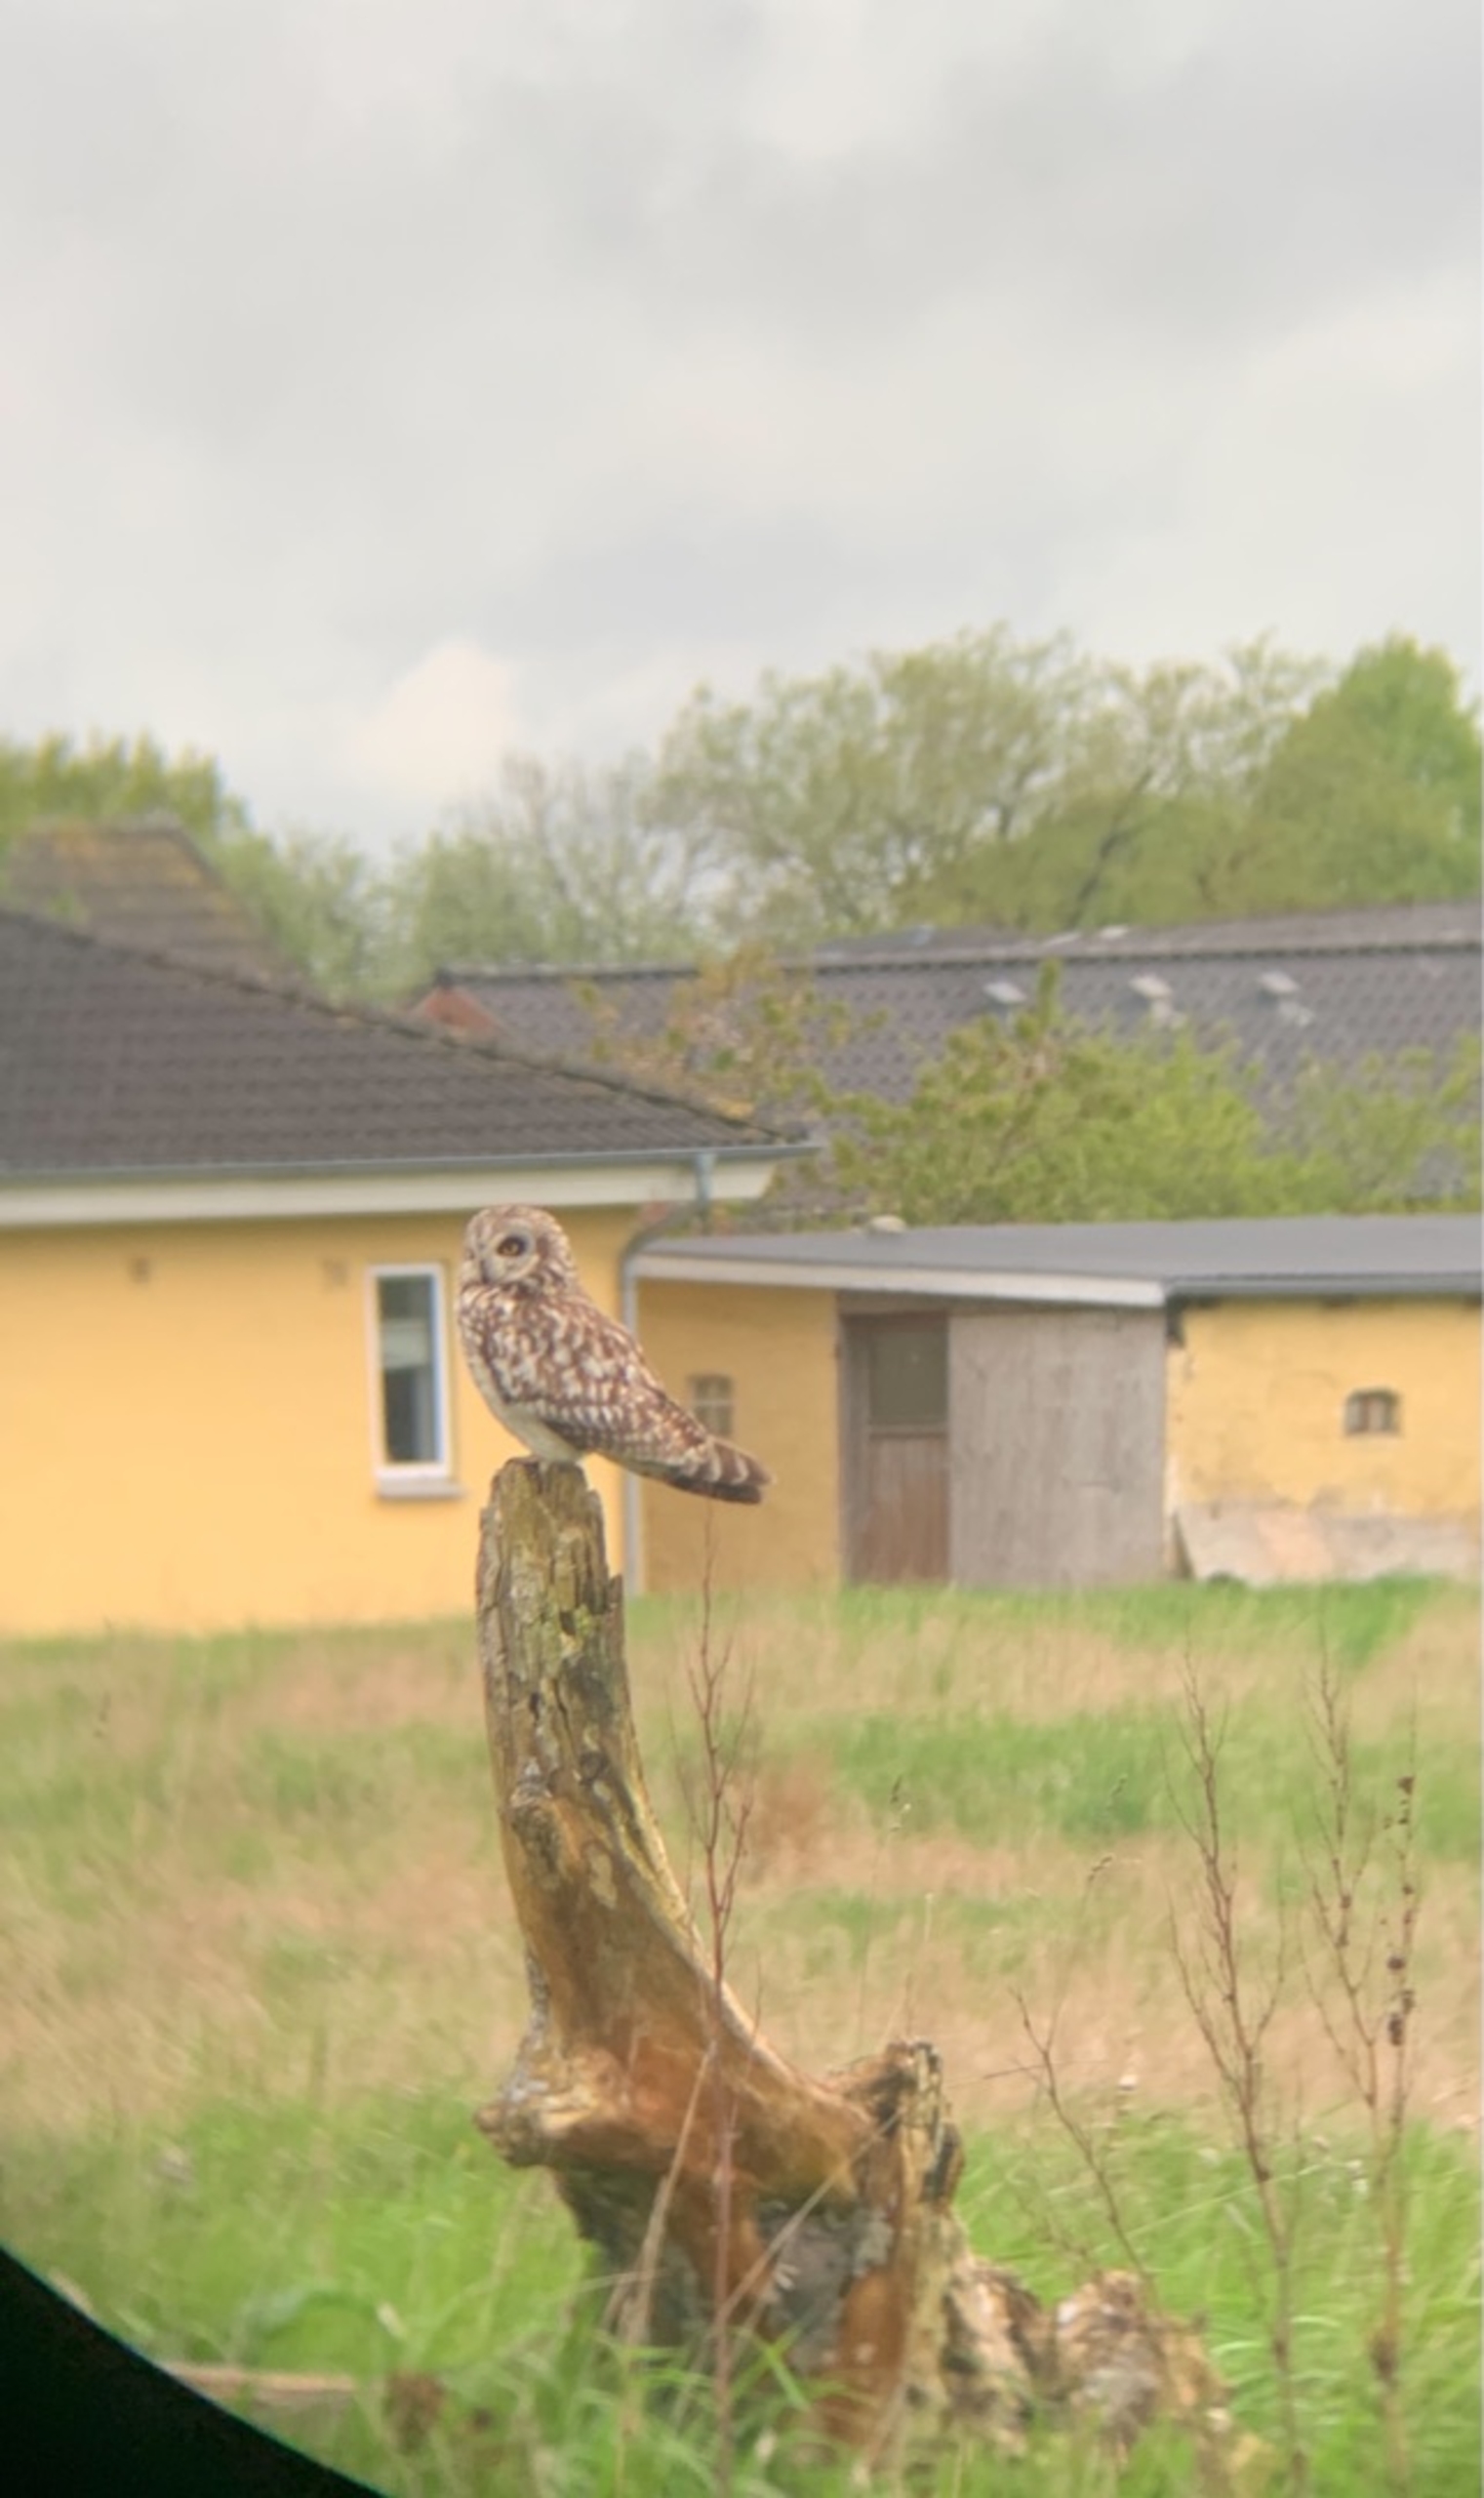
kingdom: Animalia
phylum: Chordata
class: Aves
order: Strigiformes
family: Strigidae
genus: Asio
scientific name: Asio flammeus
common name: Mosehornugle
